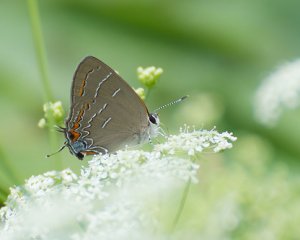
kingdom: Animalia
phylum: Arthropoda
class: Insecta
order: Lepidoptera
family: Lycaenidae
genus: Phaeostrymon
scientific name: Phaeostrymon alcestis
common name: Soapberry Hairstreak
